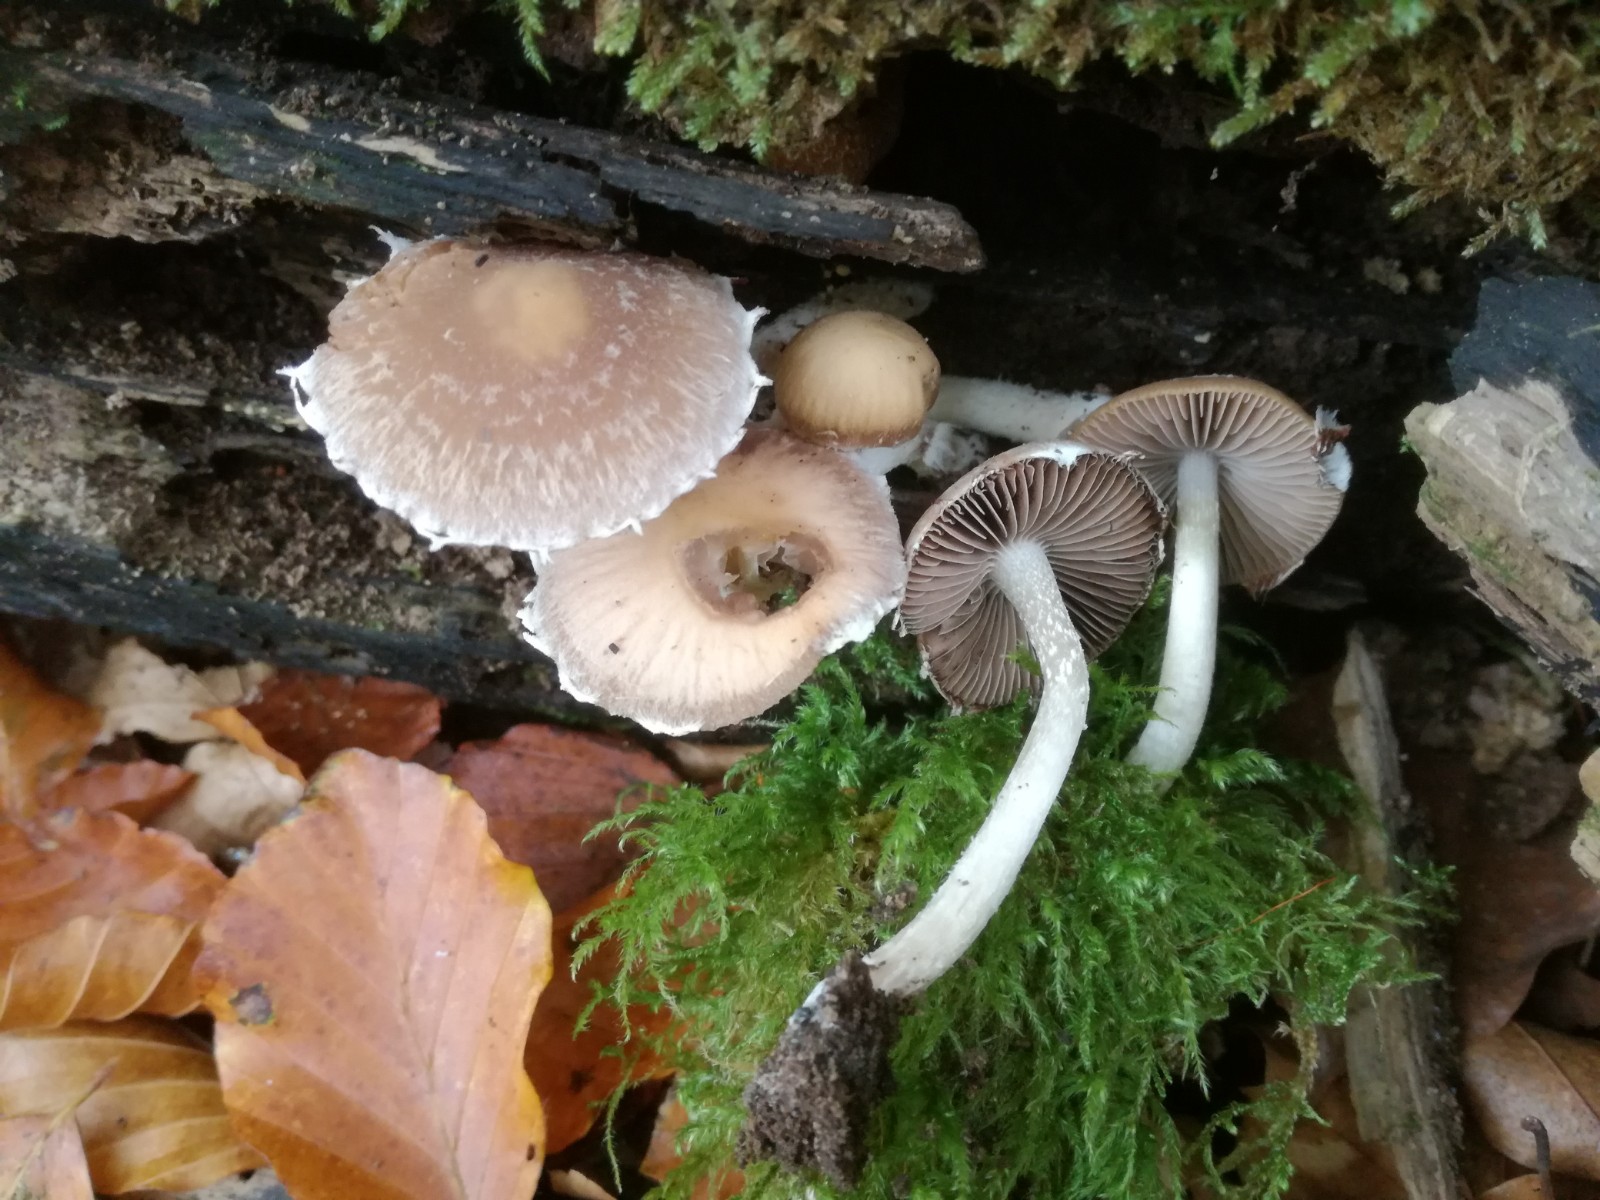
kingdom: Fungi
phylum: Basidiomycota
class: Agaricomycetes
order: Agaricales
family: Psathyrellaceae
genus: Psathyrella
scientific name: Psathyrella spintrigeroides
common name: tandet mørkhat
